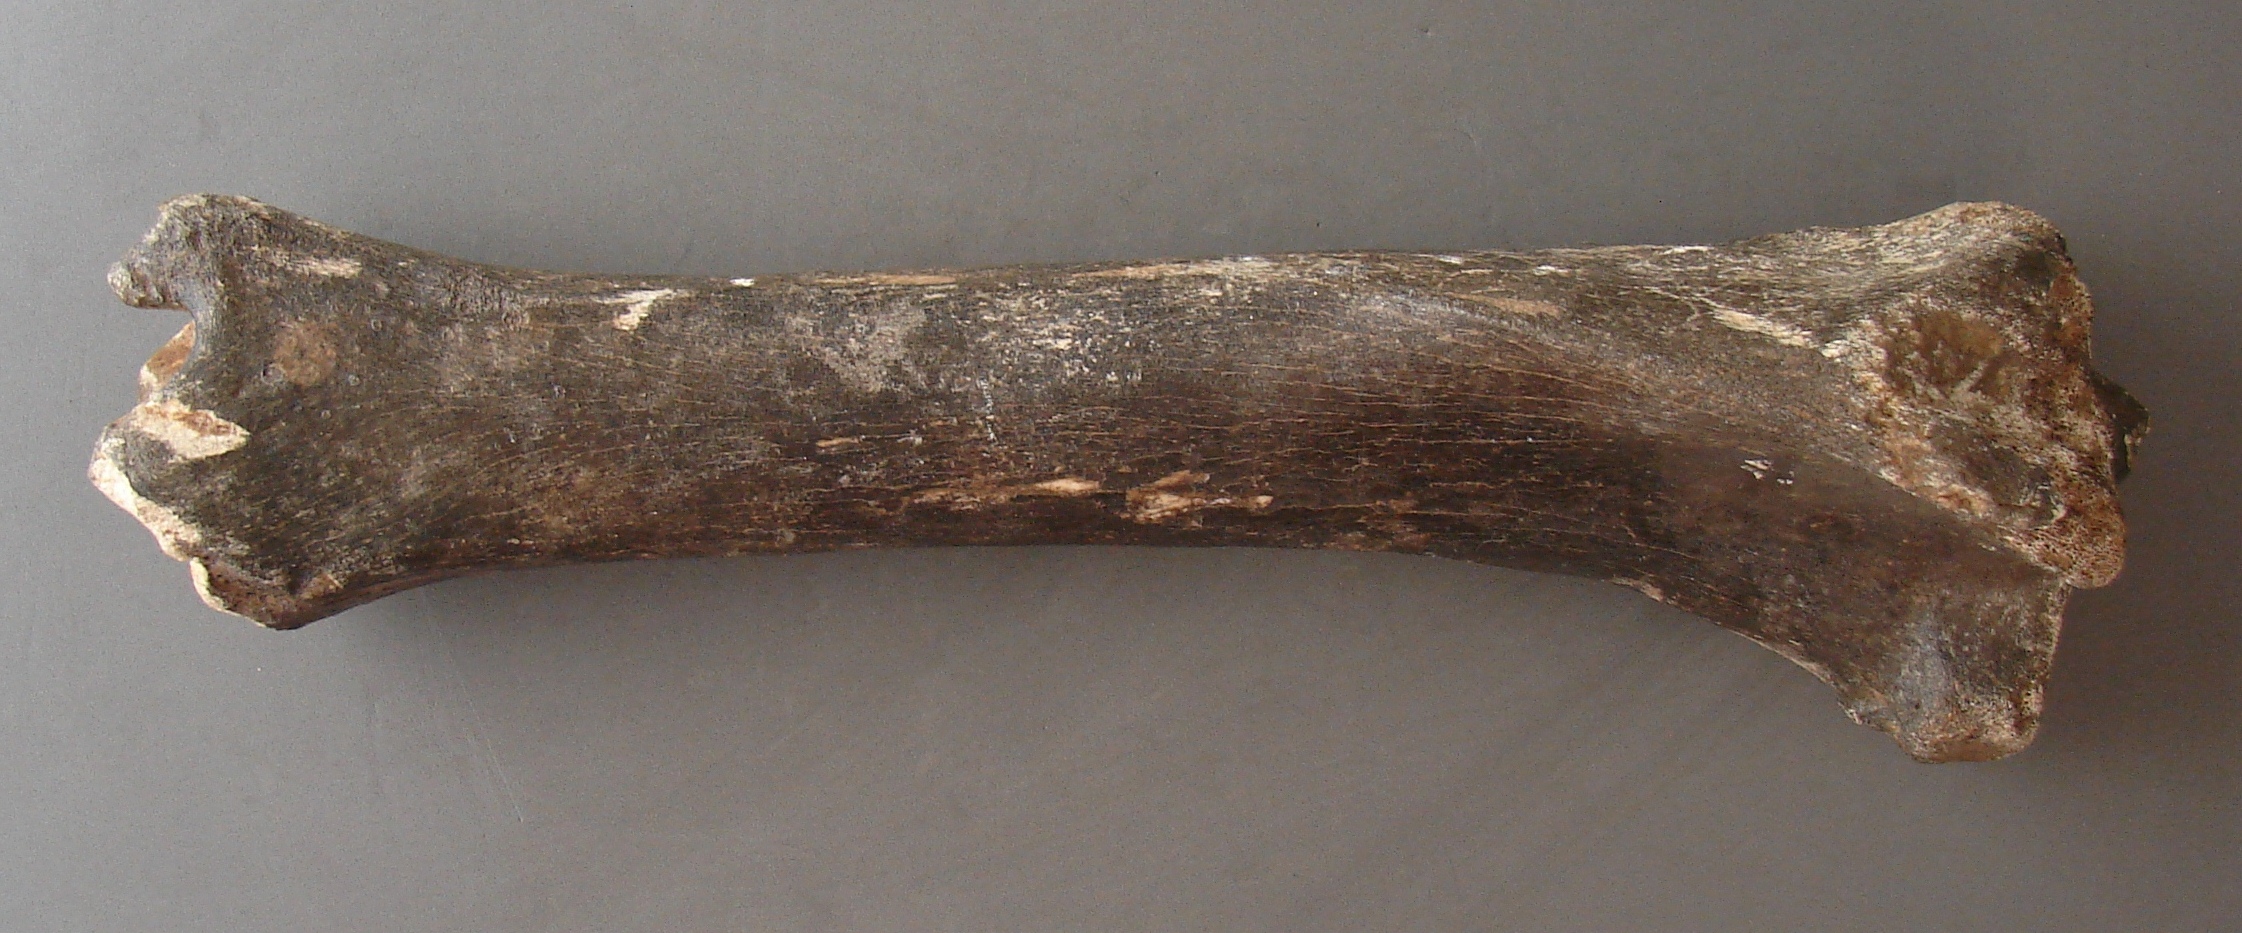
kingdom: Animalia
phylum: Chordata
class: Mammalia
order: Perissodactyla
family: Equidae
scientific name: Equidae
